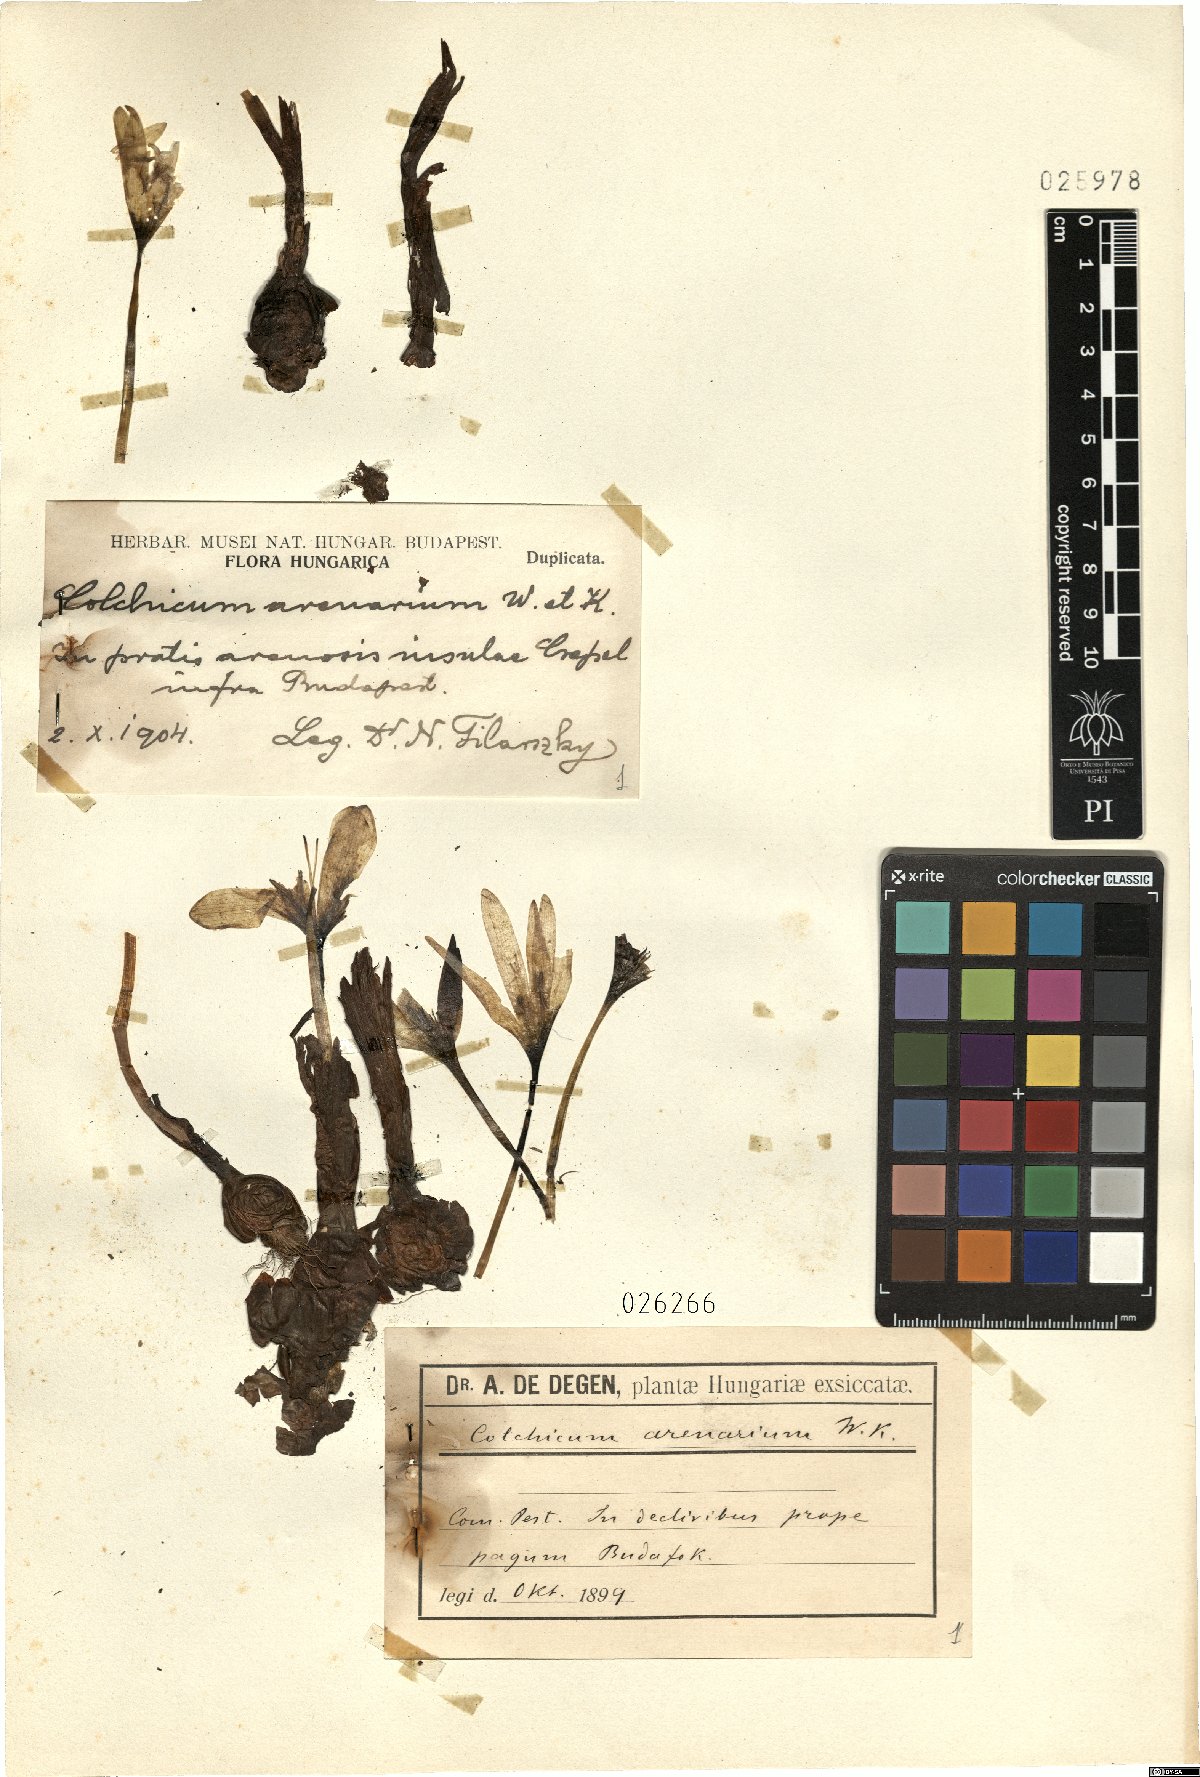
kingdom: Plantae
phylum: Tracheophyta
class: Liliopsida
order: Liliales
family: Colchicaceae
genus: Colchicum
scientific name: Colchicum arenarium
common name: Sand saffron
